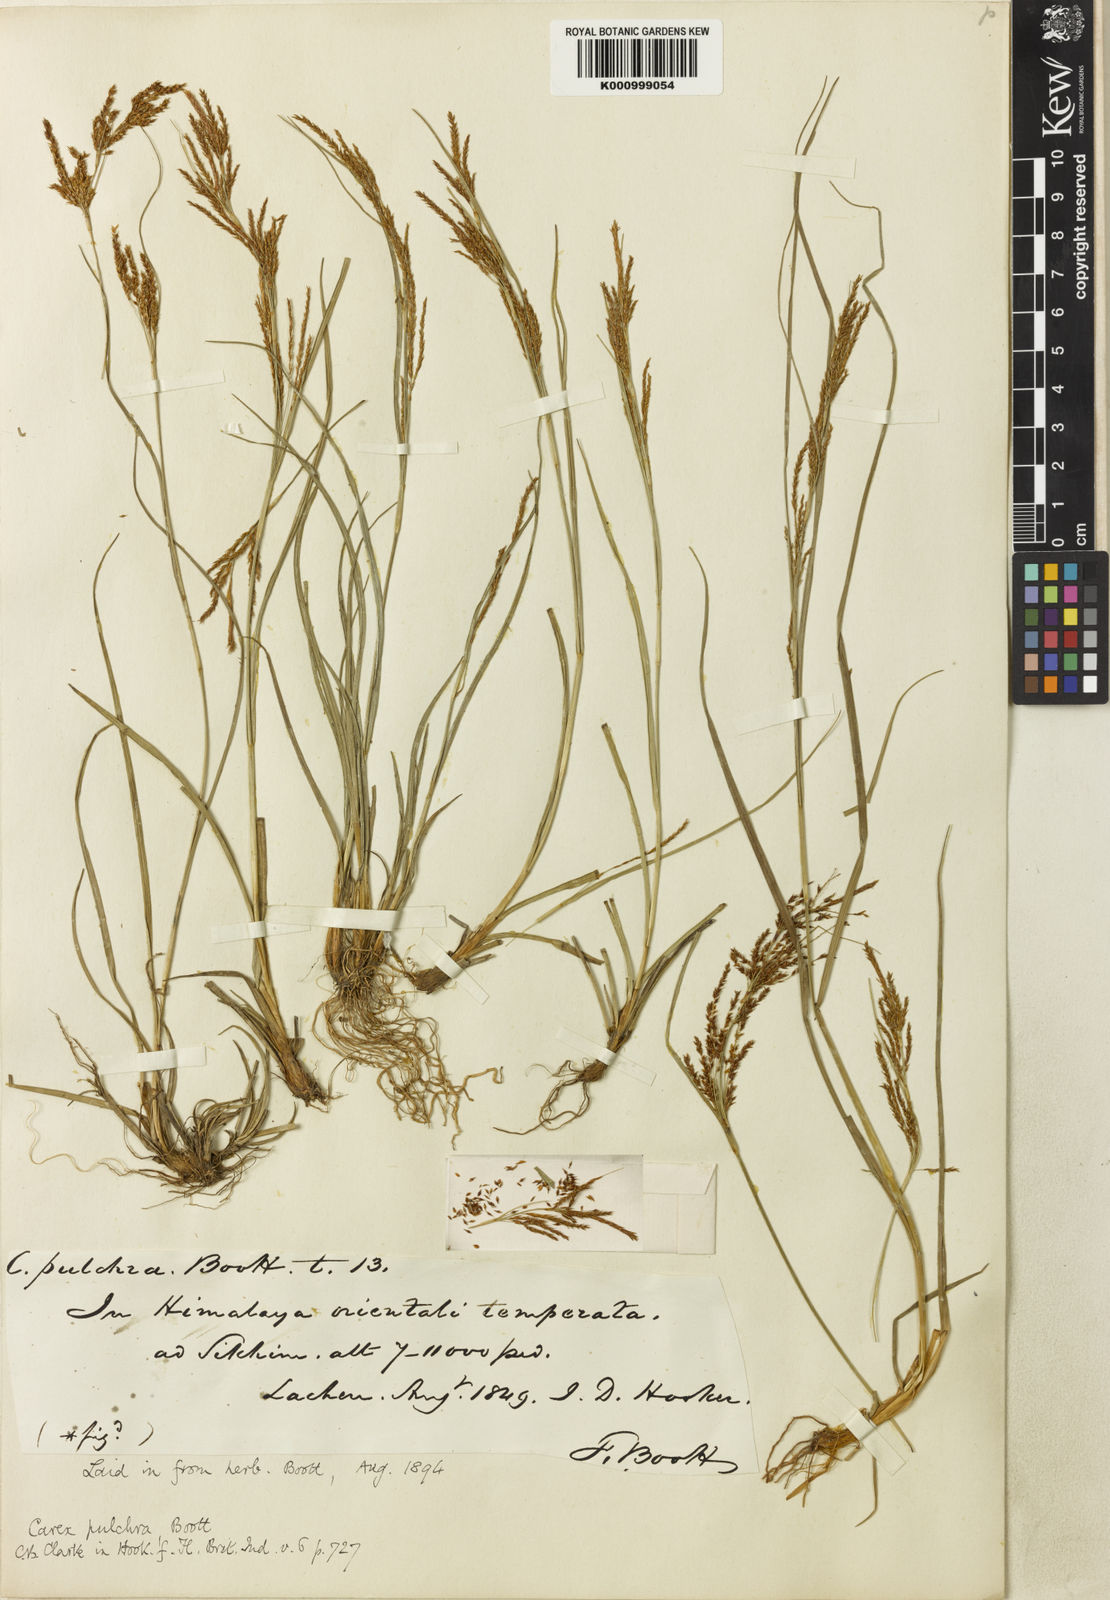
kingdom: Plantae
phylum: Tracheophyta
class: Liliopsida
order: Poales
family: Cyperaceae
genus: Carex
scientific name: Carex pulchra
